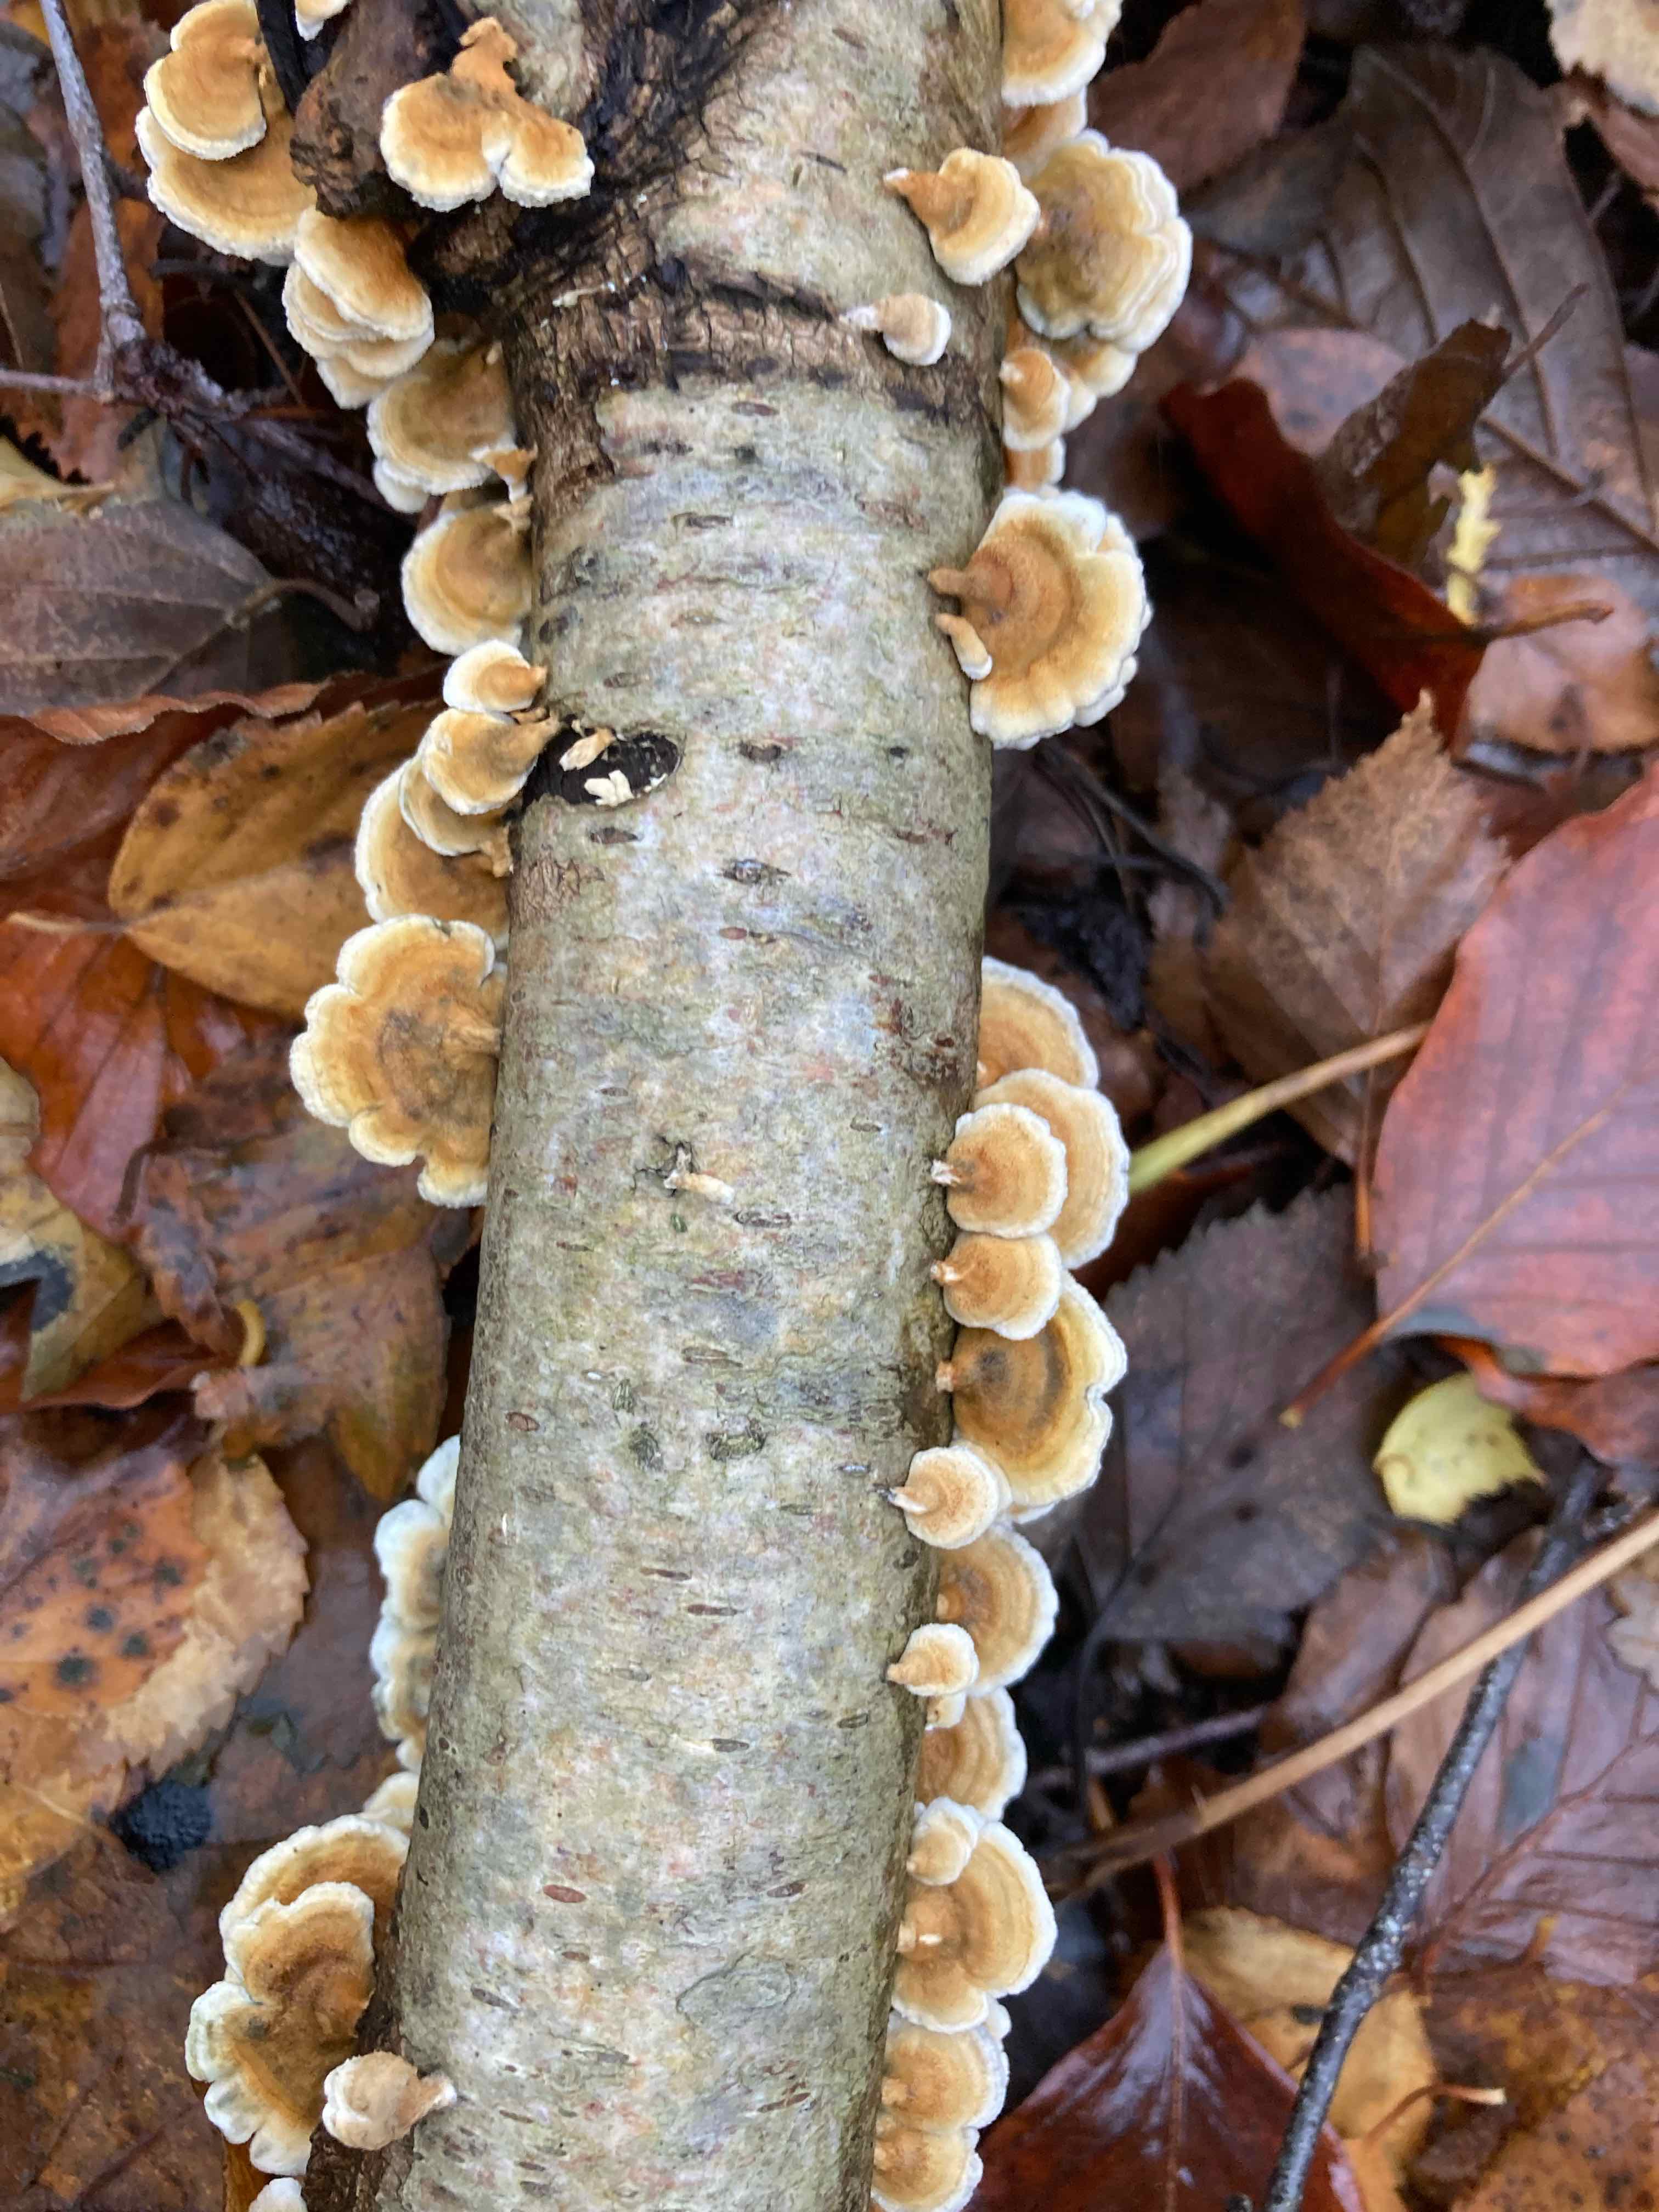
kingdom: Fungi
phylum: Basidiomycota
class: Agaricomycetes
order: Amylocorticiales
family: Amylocorticiaceae
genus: Plicaturopsis
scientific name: Plicaturopsis crispa
